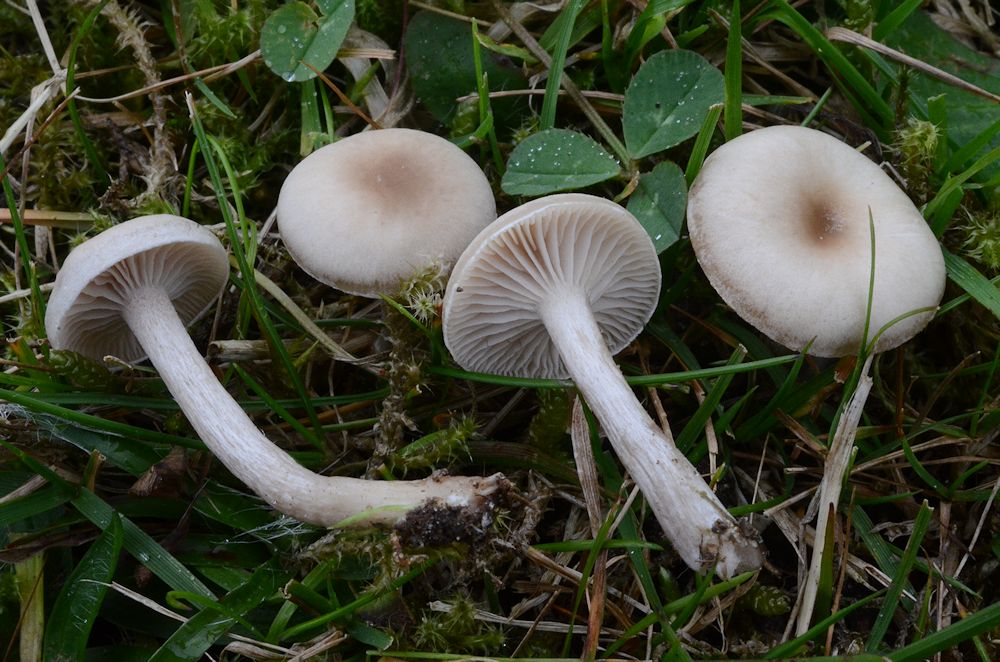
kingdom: Fungi
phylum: Basidiomycota
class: Agaricomycetes
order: Agaricales
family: Tricholomataceae
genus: Clitocybe
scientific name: Clitocybe fragrans
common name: vellugtende tragthat
